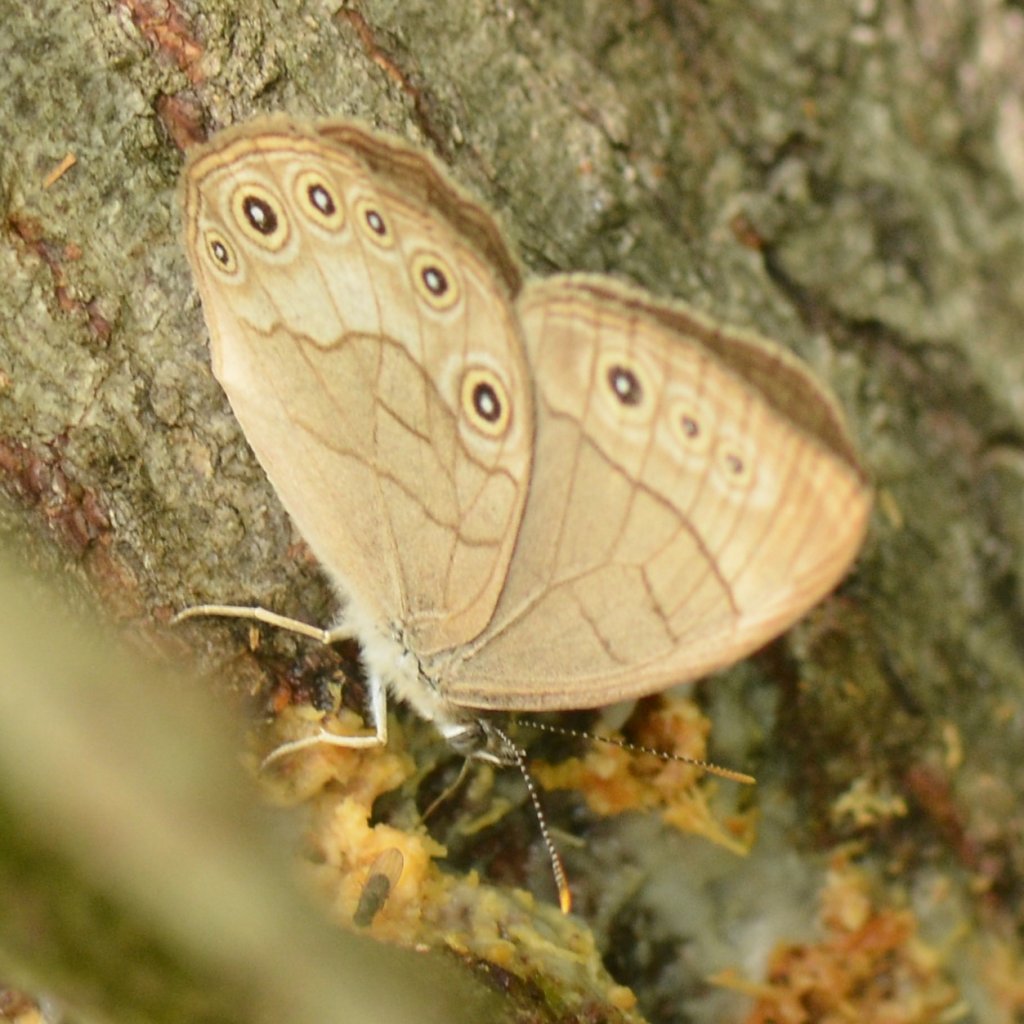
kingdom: Animalia
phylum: Arthropoda
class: Insecta
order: Lepidoptera
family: Nymphalidae
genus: Lethe
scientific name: Lethe eurydice
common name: Appalachian Eyed Brown
